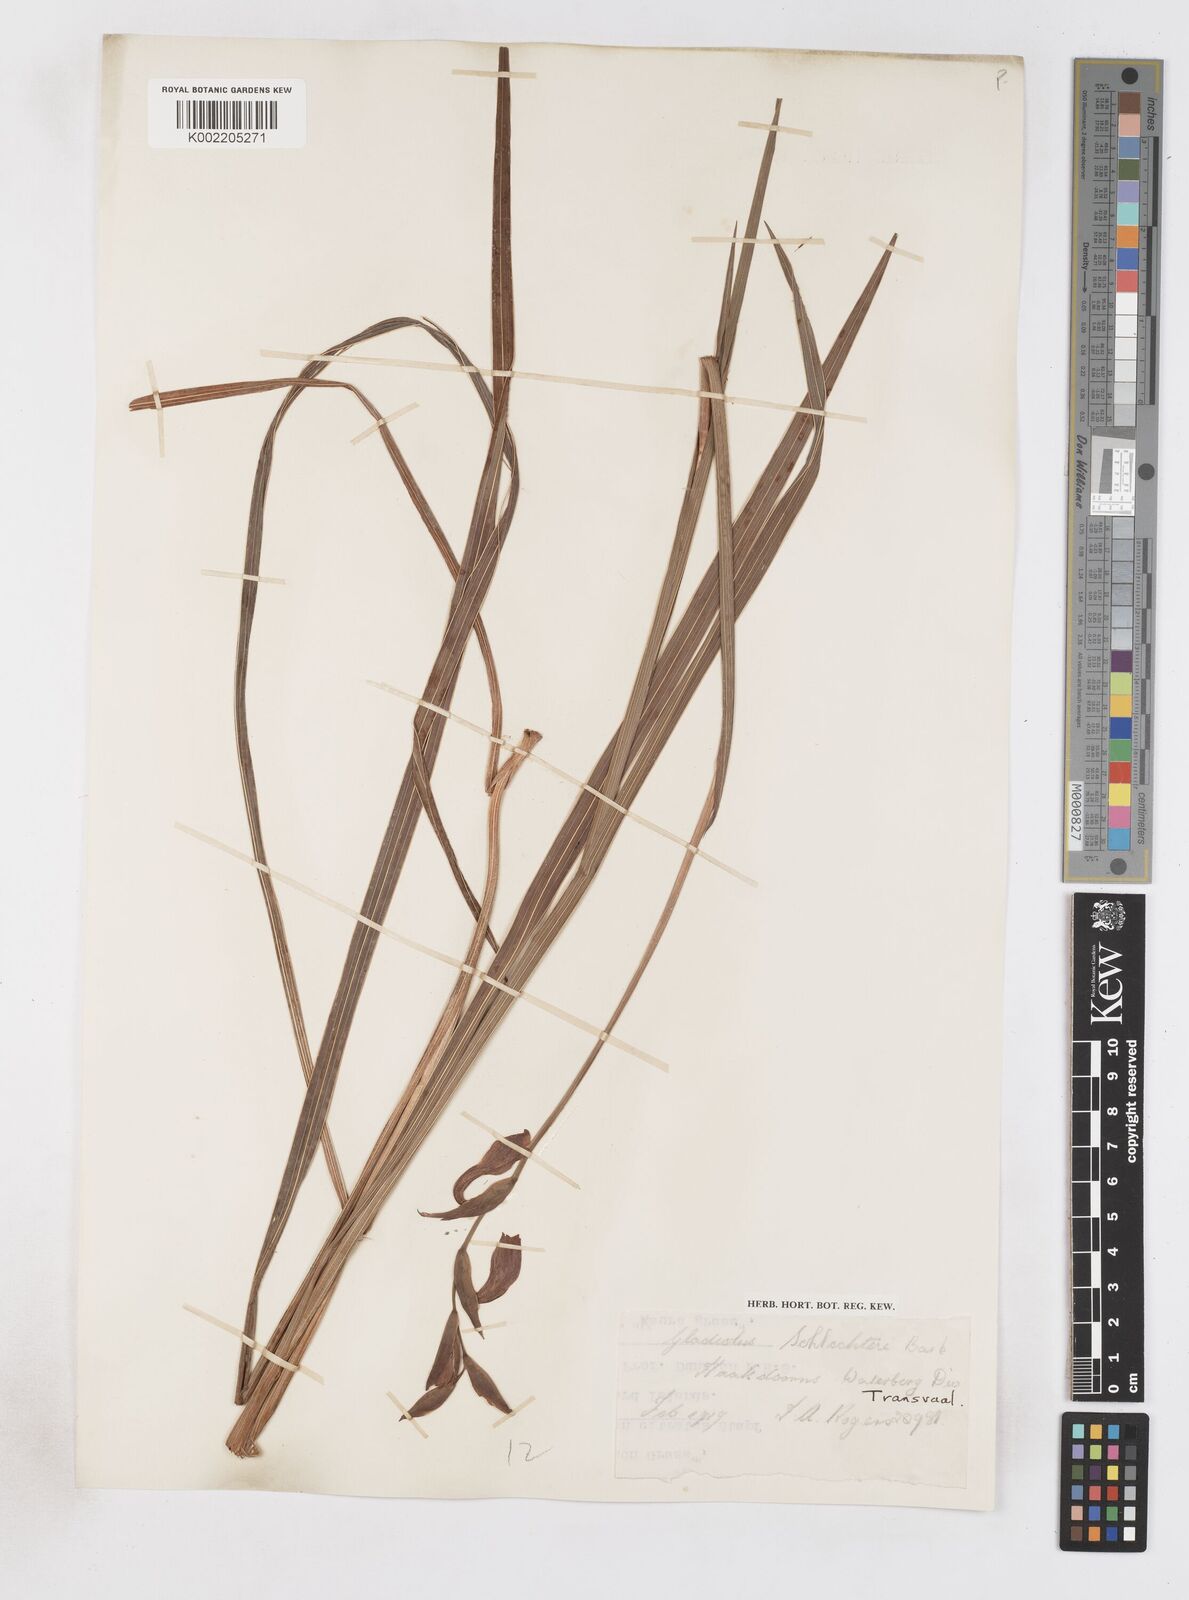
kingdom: Plantae
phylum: Tracheophyta
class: Liliopsida
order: Asparagales
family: Iridaceae
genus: Gladiolus
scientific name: Gladiolus papilio
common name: Goldblotch gladiolus
